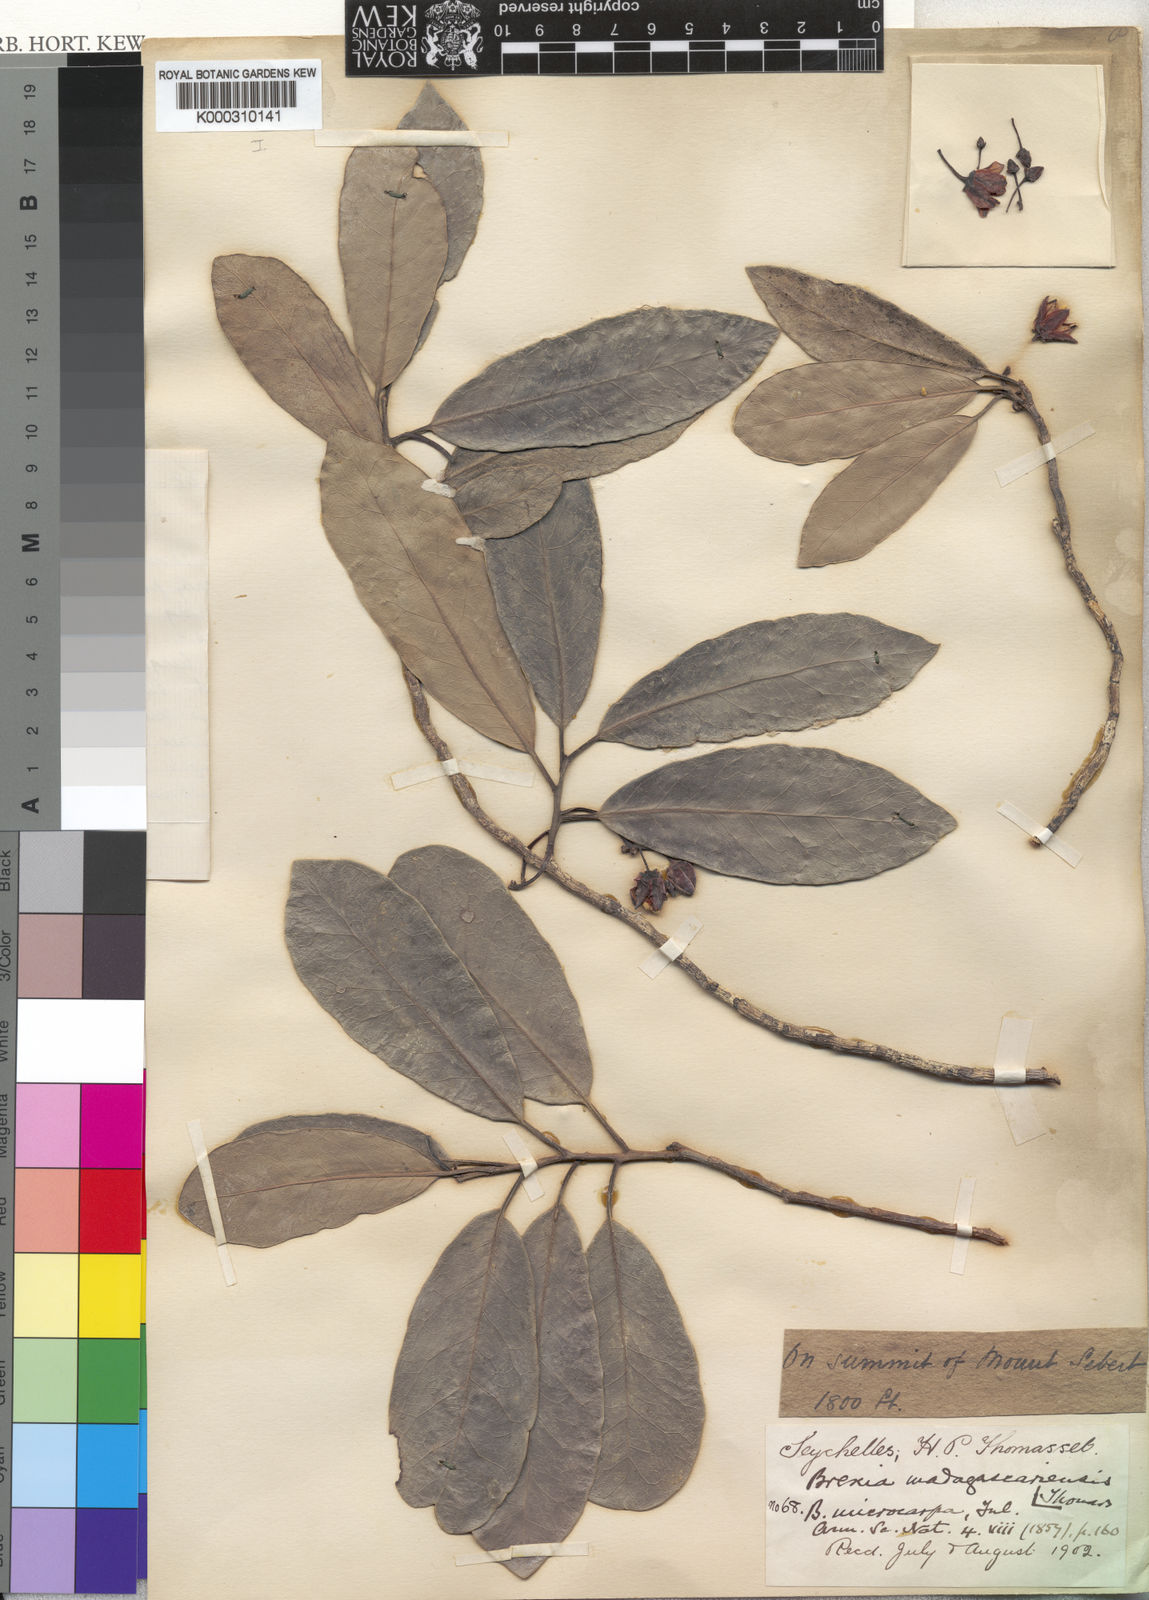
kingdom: Plantae
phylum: Tracheophyta
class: Magnoliopsida
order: Celastrales
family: Celastraceae
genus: Brexia
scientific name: Brexia madagascariensis
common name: Brexia
